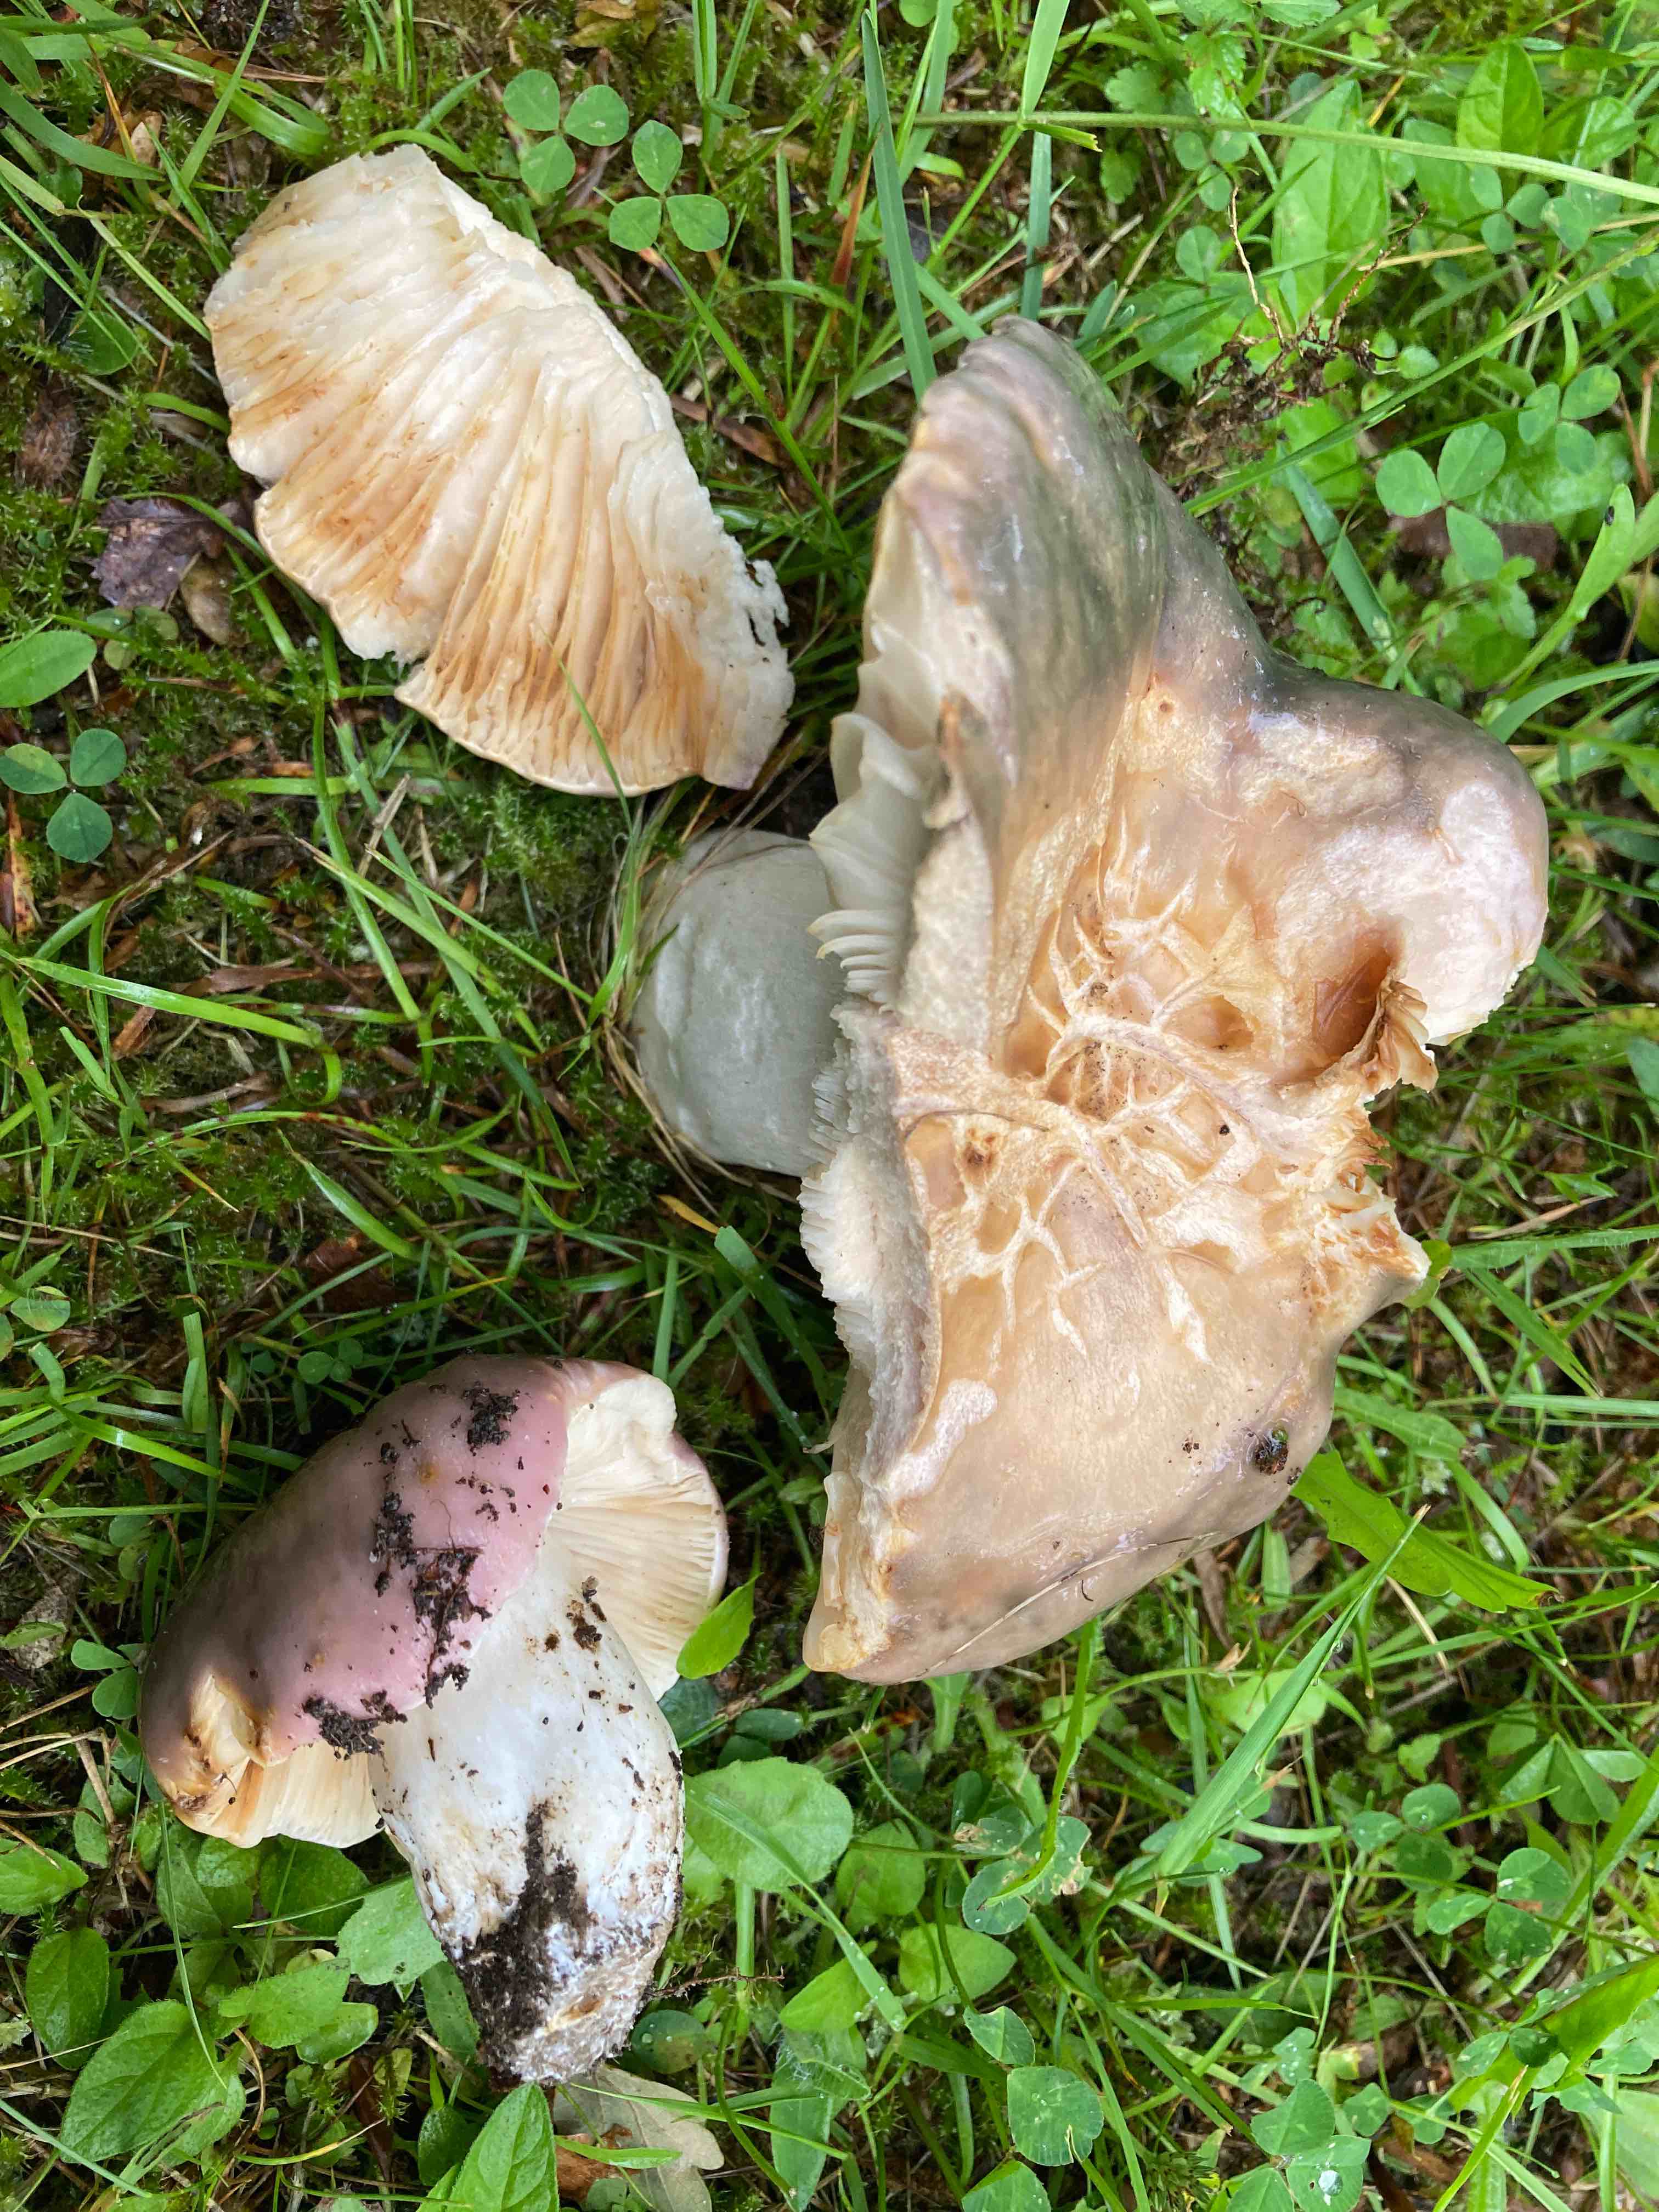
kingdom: Fungi
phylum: Basidiomycota
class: Agaricomycetes
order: Russulales
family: Russulaceae
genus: Russula
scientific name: Russula cyanoxantha
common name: broget skørhat
